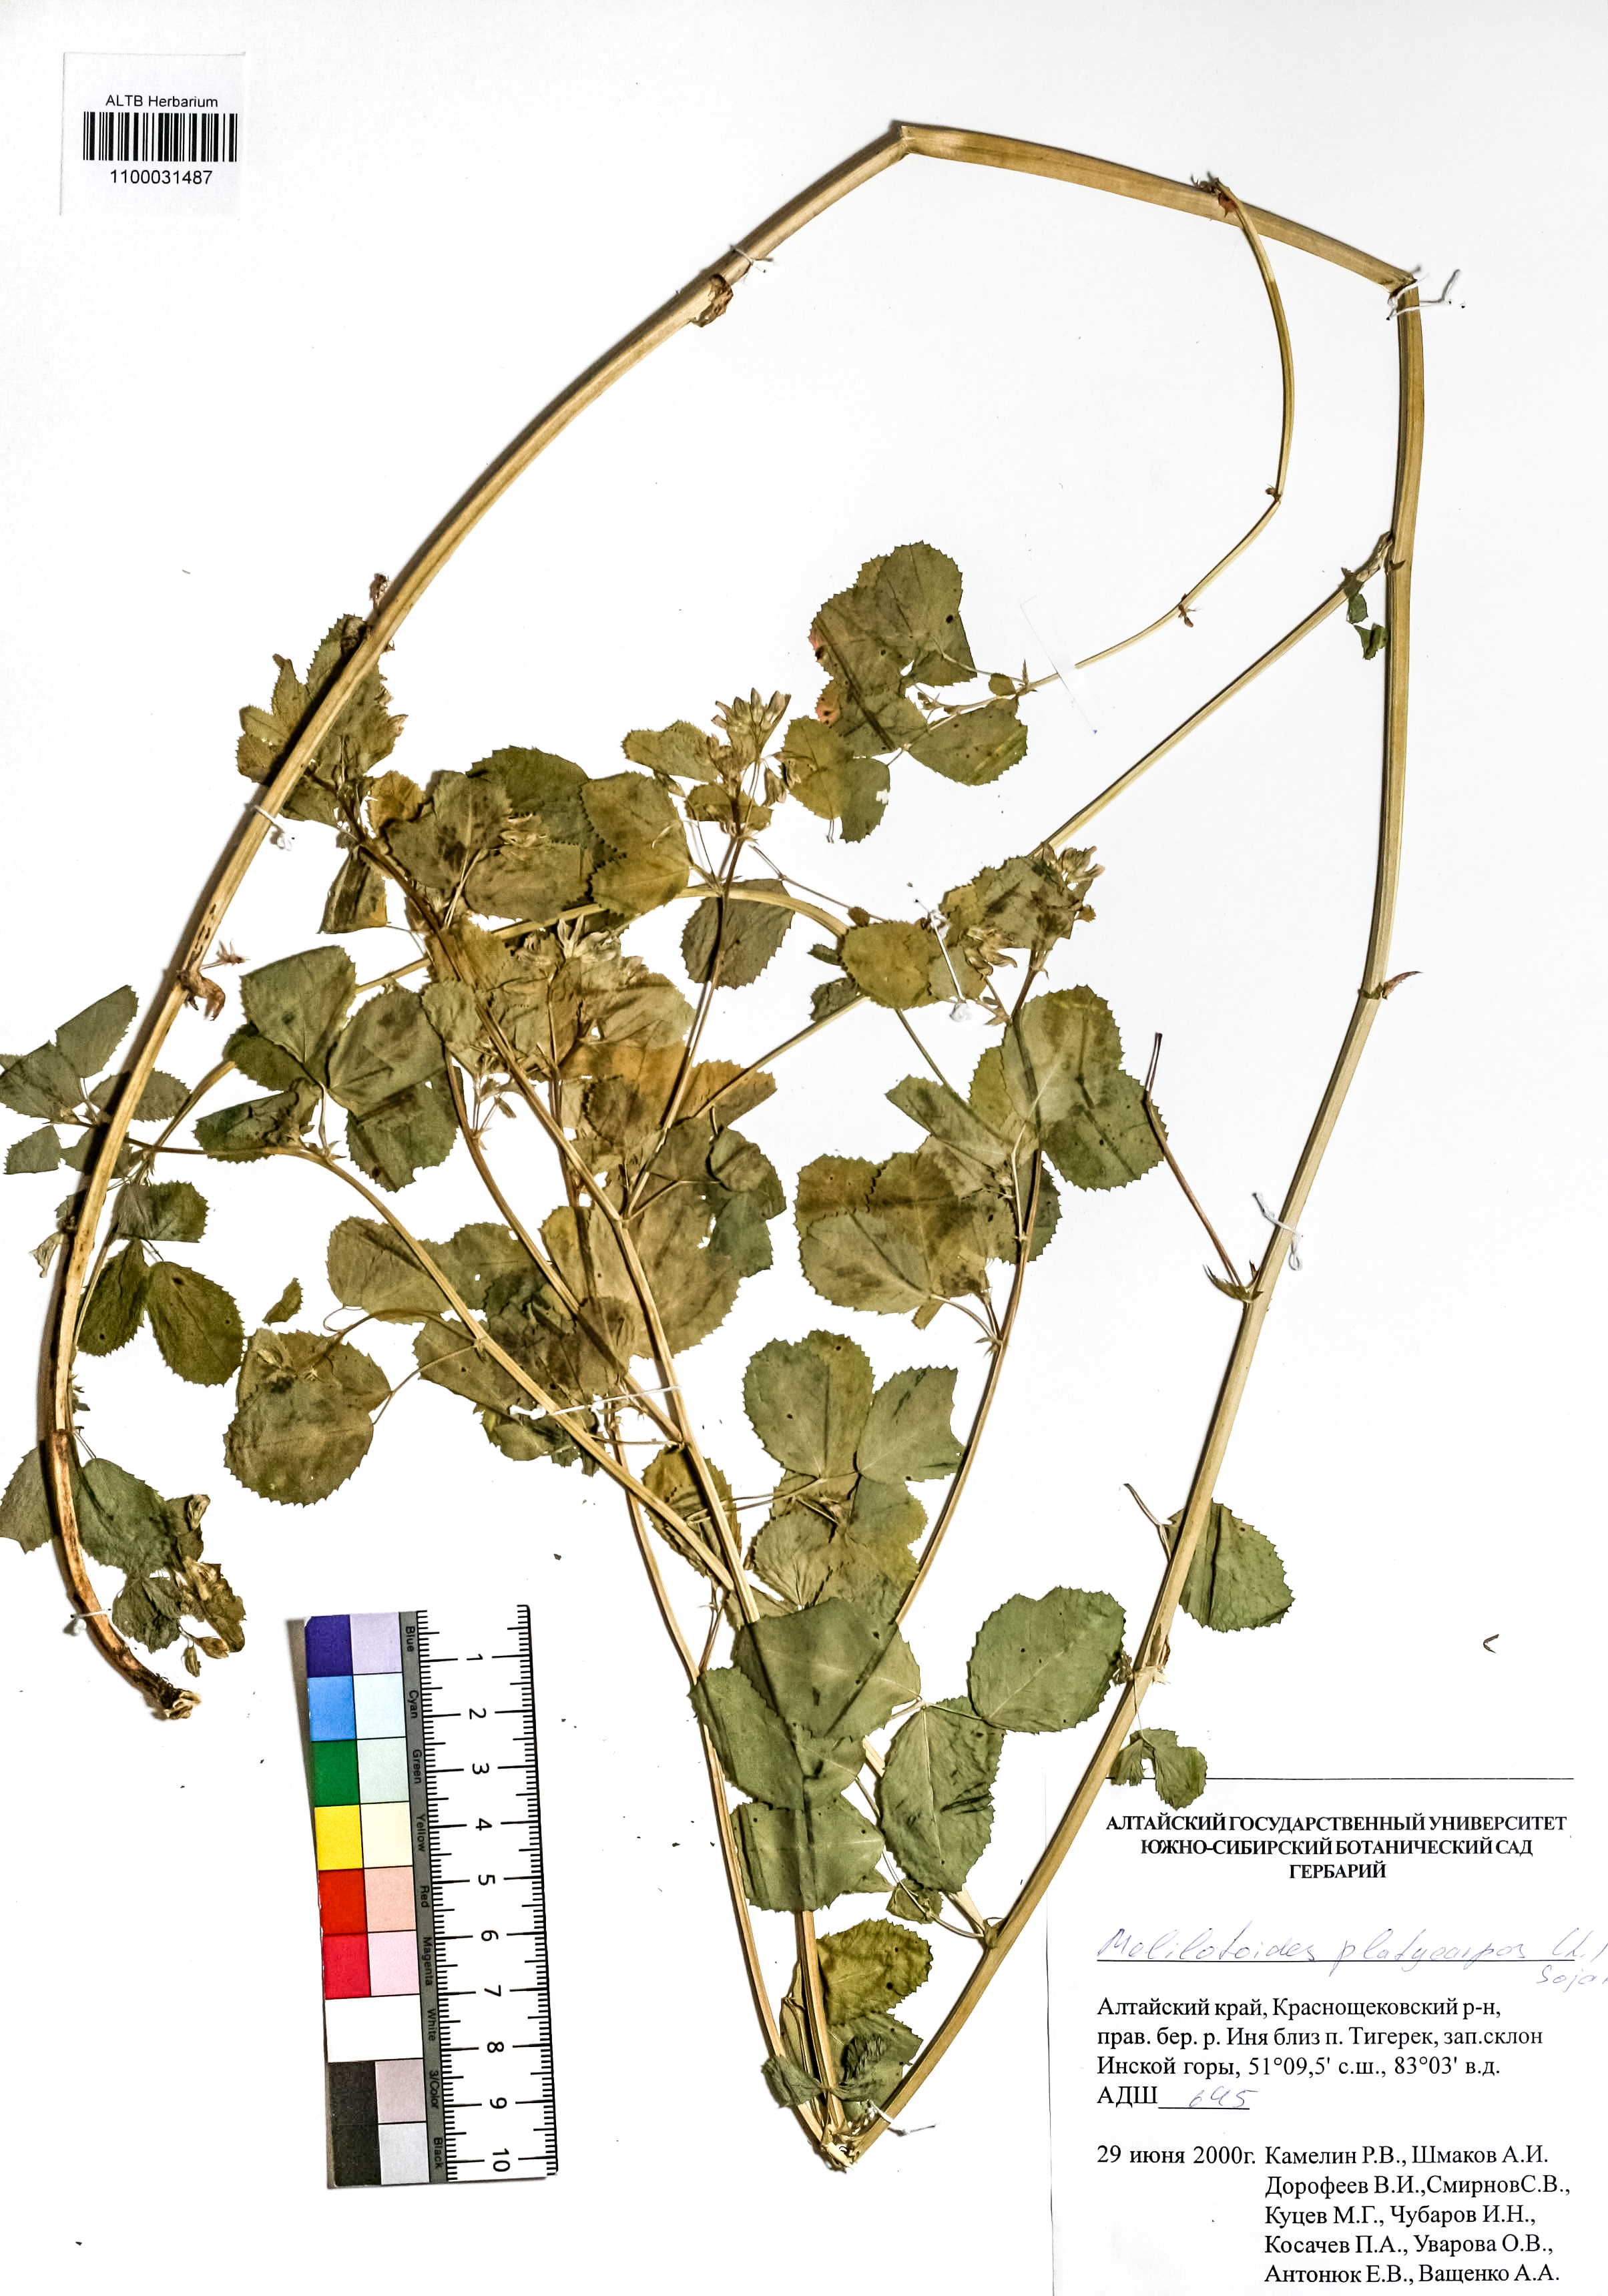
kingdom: Plantae
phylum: Tracheophyta
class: Magnoliopsida
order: Fabales
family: Fabaceae
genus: Medicago
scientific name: Medicago platycarpos
